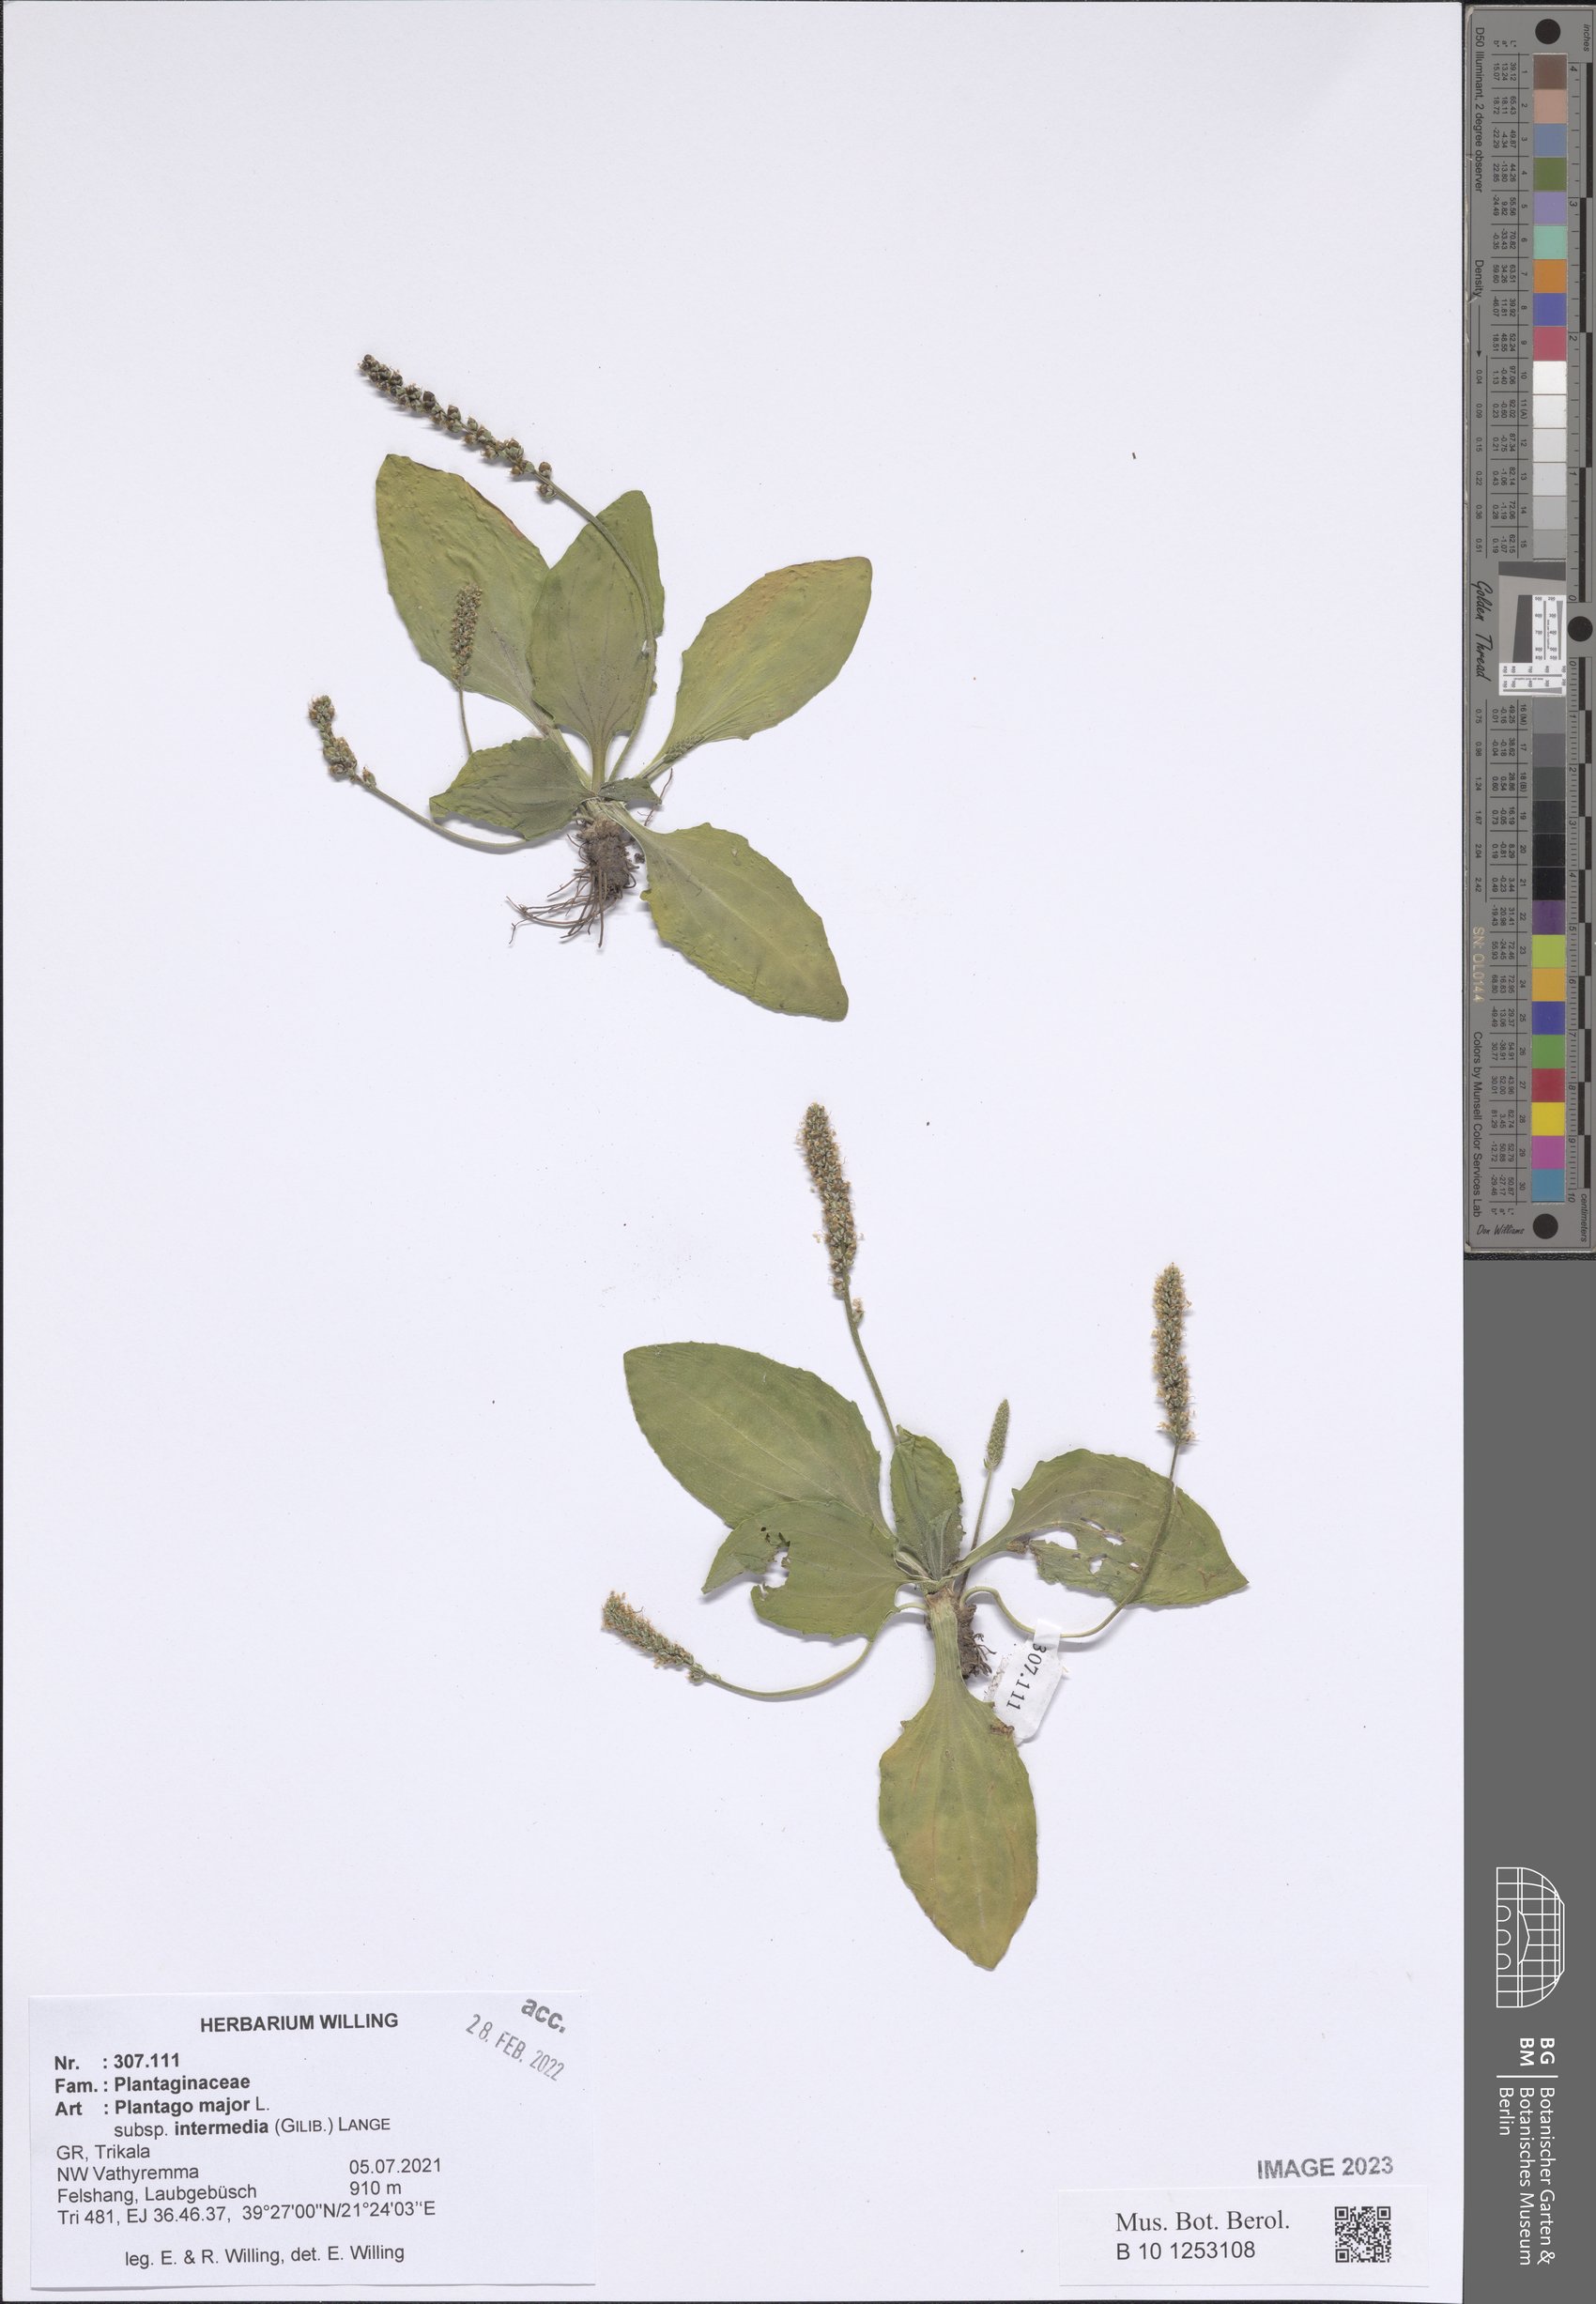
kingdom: Plantae
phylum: Tracheophyta
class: Magnoliopsida
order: Lamiales
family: Plantaginaceae
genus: Plantago
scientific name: Plantago uliginosa
